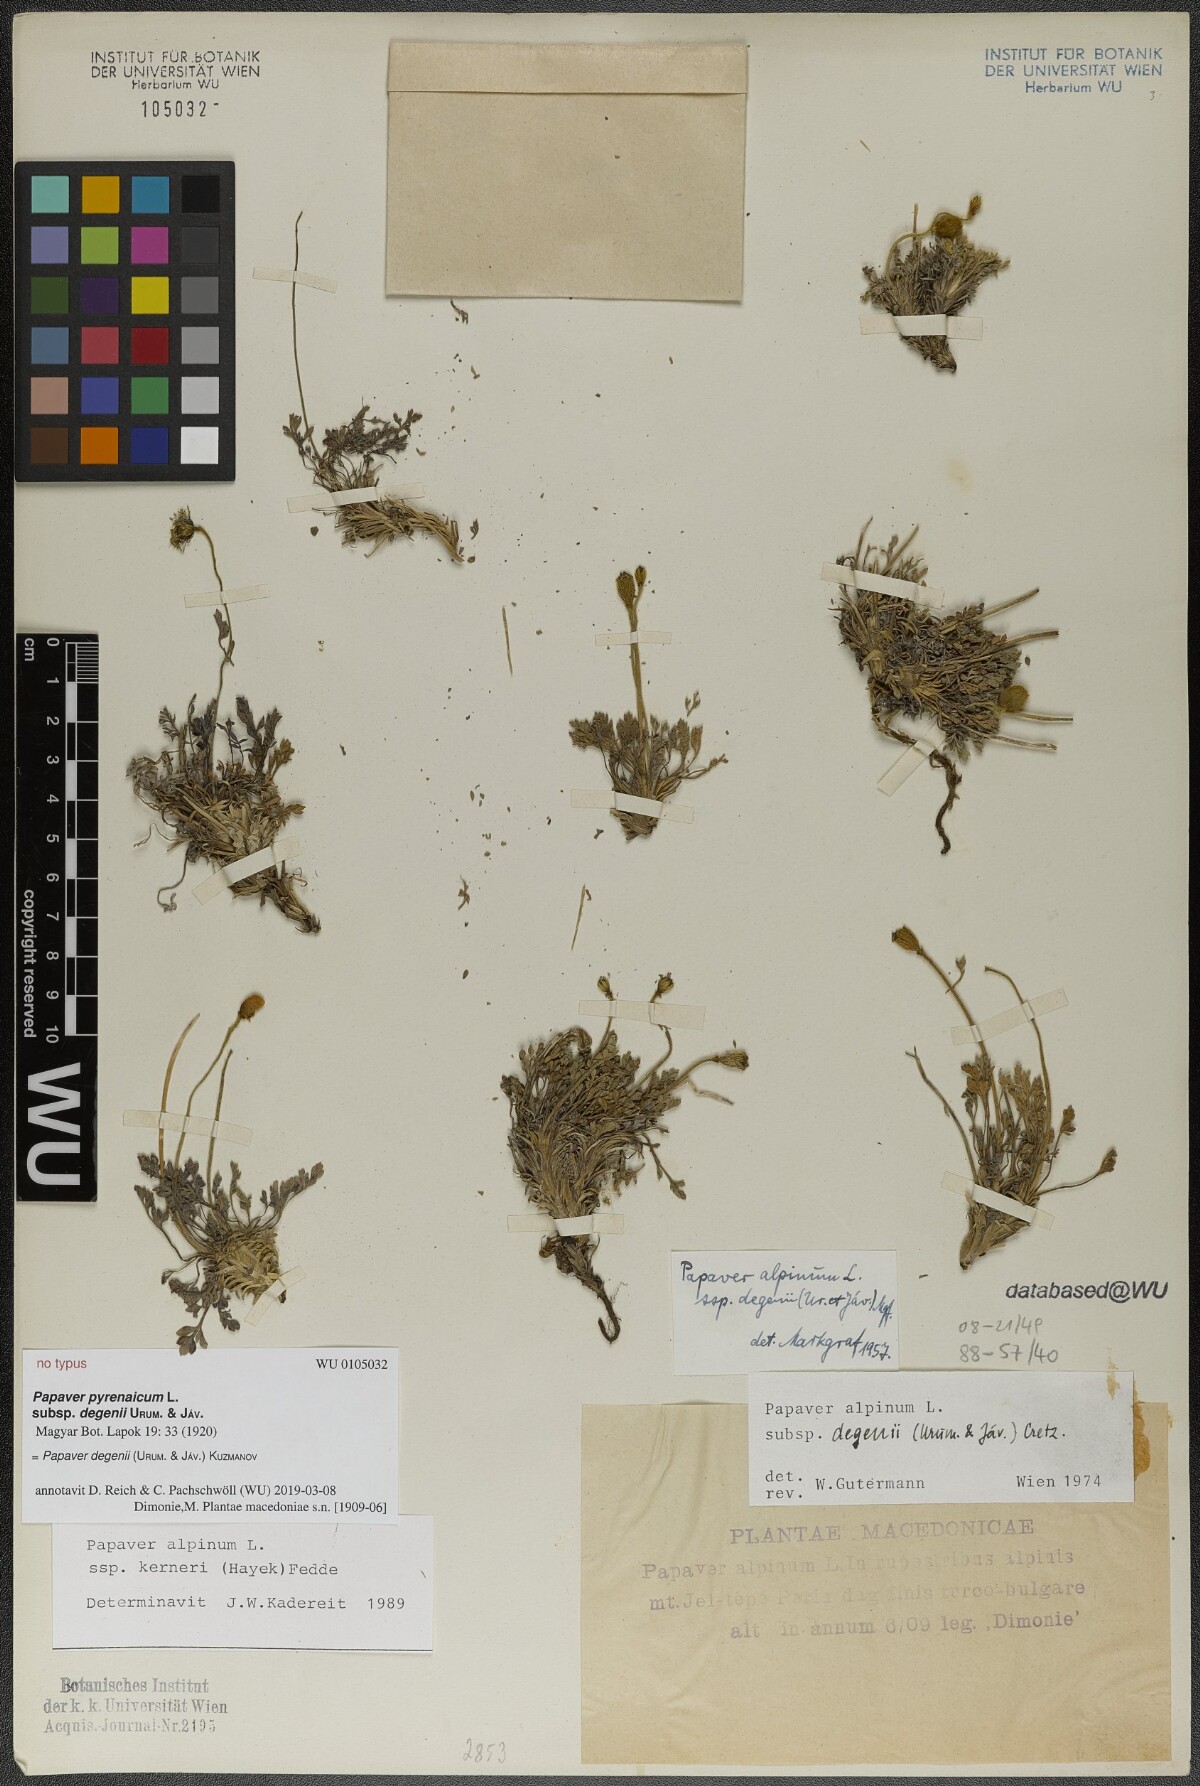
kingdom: Plantae
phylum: Tracheophyta
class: Magnoliopsida
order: Ranunculales
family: Papaveraceae
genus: Papaver
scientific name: Papaver alpinum
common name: Austrian poppy
